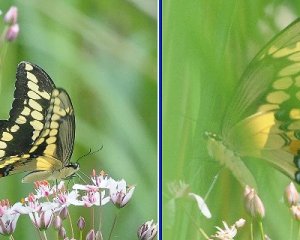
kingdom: Animalia
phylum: Arthropoda
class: Insecta
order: Lepidoptera
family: Papilionidae
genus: Papilio
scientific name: Papilio cresphontes
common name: Eastern Giant Swallowtail
